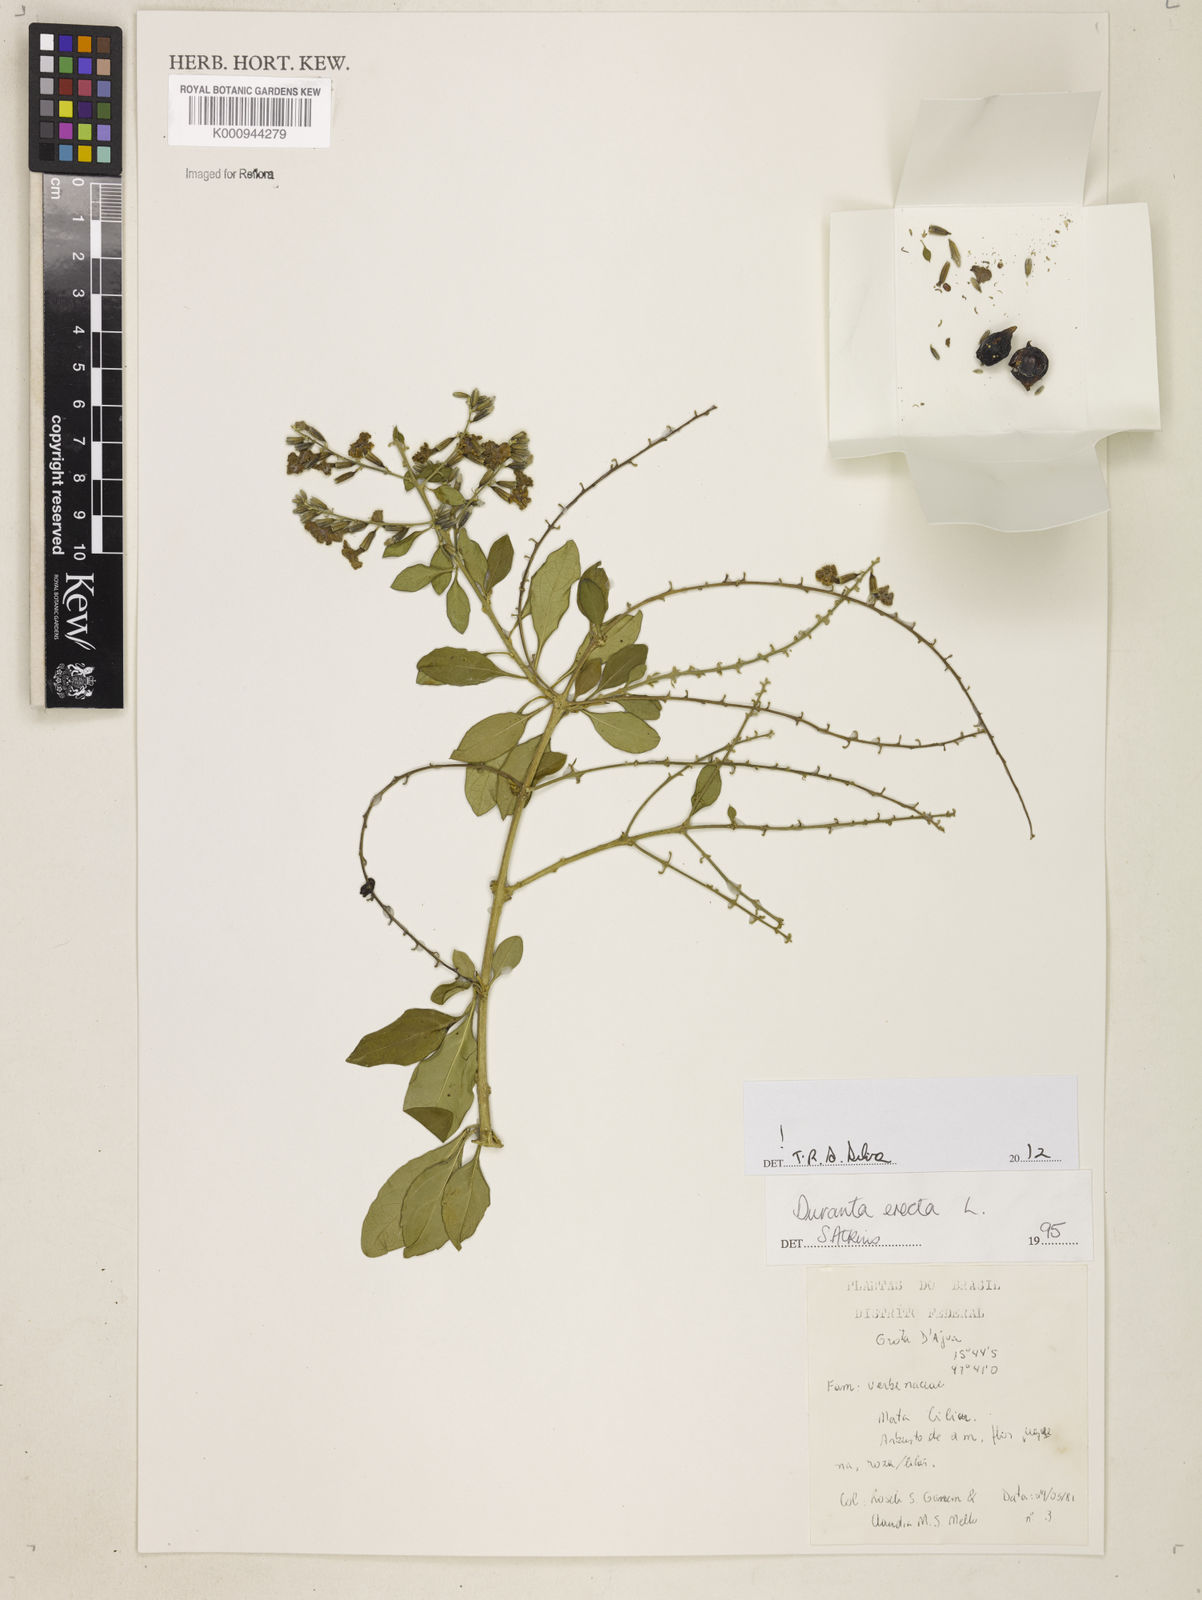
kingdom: Plantae
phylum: Tracheophyta
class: Magnoliopsida
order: Lamiales
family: Verbenaceae
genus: Citharexylum
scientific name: Citharexylum caudatum
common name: Fiddlewood
